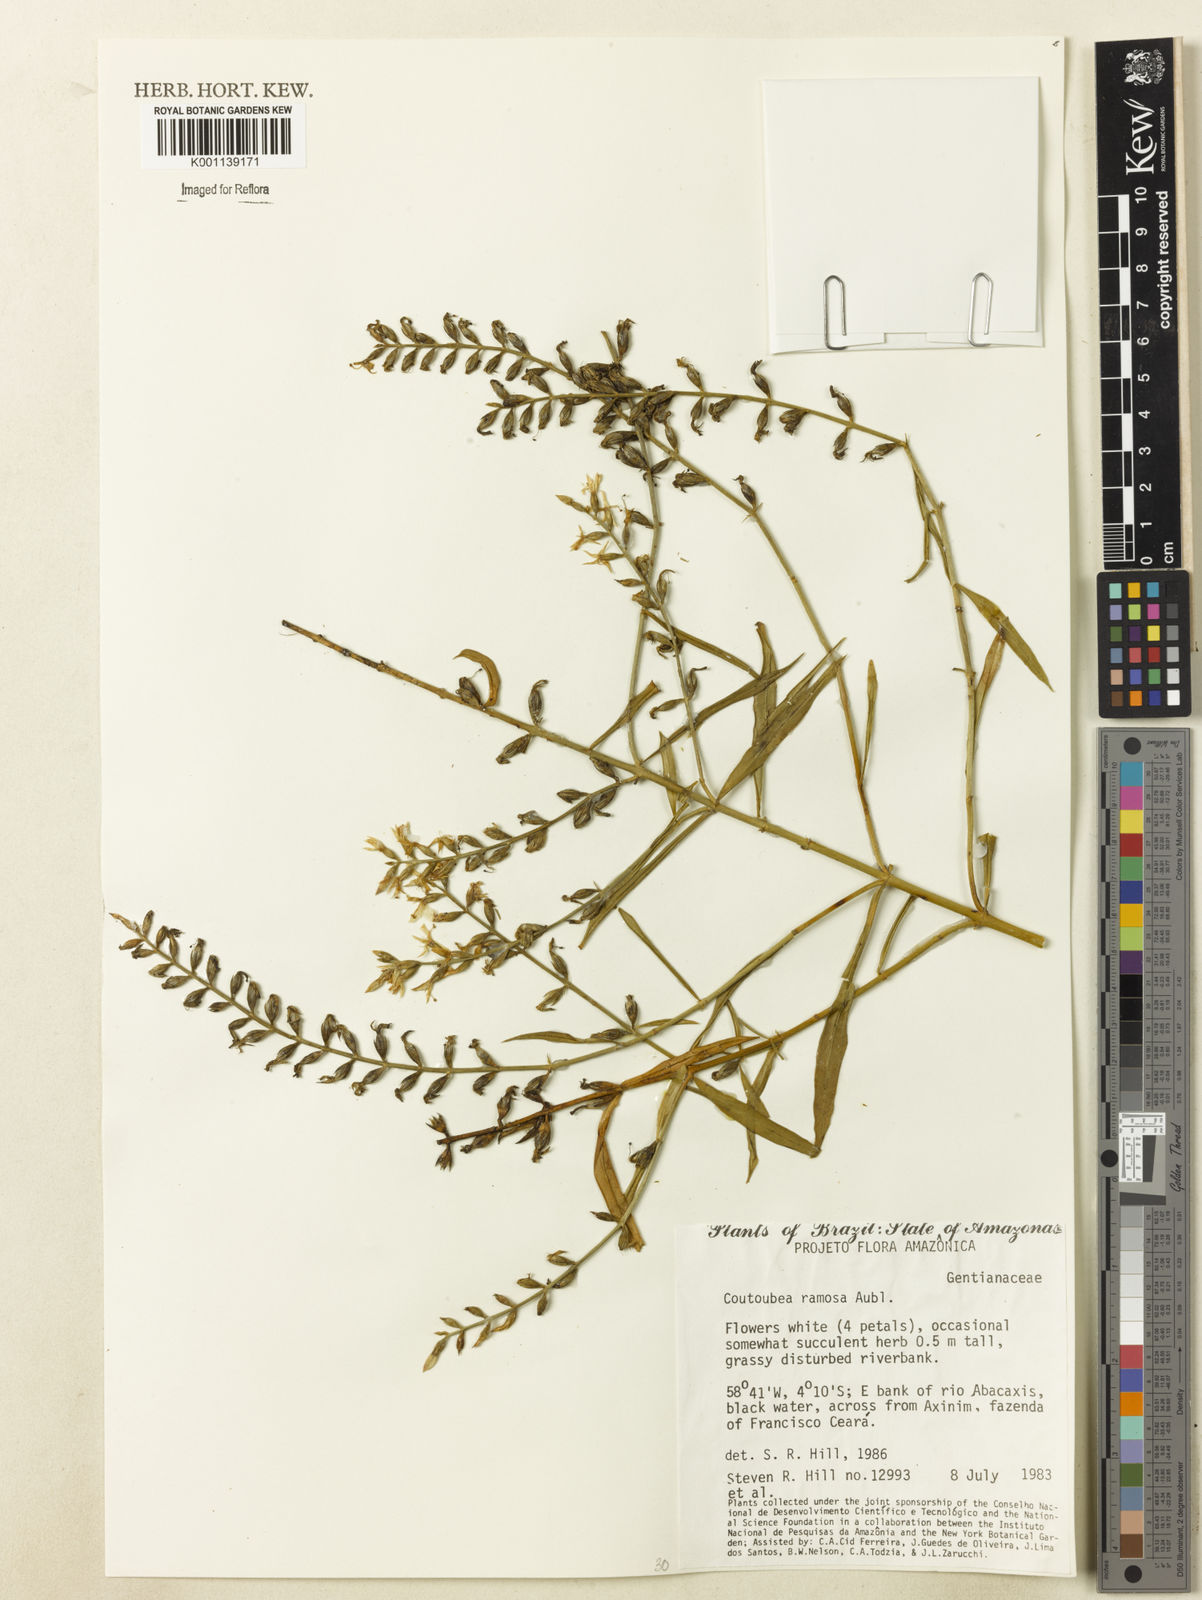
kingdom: Plantae
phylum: Tracheophyta
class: Magnoliopsida
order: Gentianales
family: Gentianaceae
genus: Coutoubea
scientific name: Coutoubea ramosa
